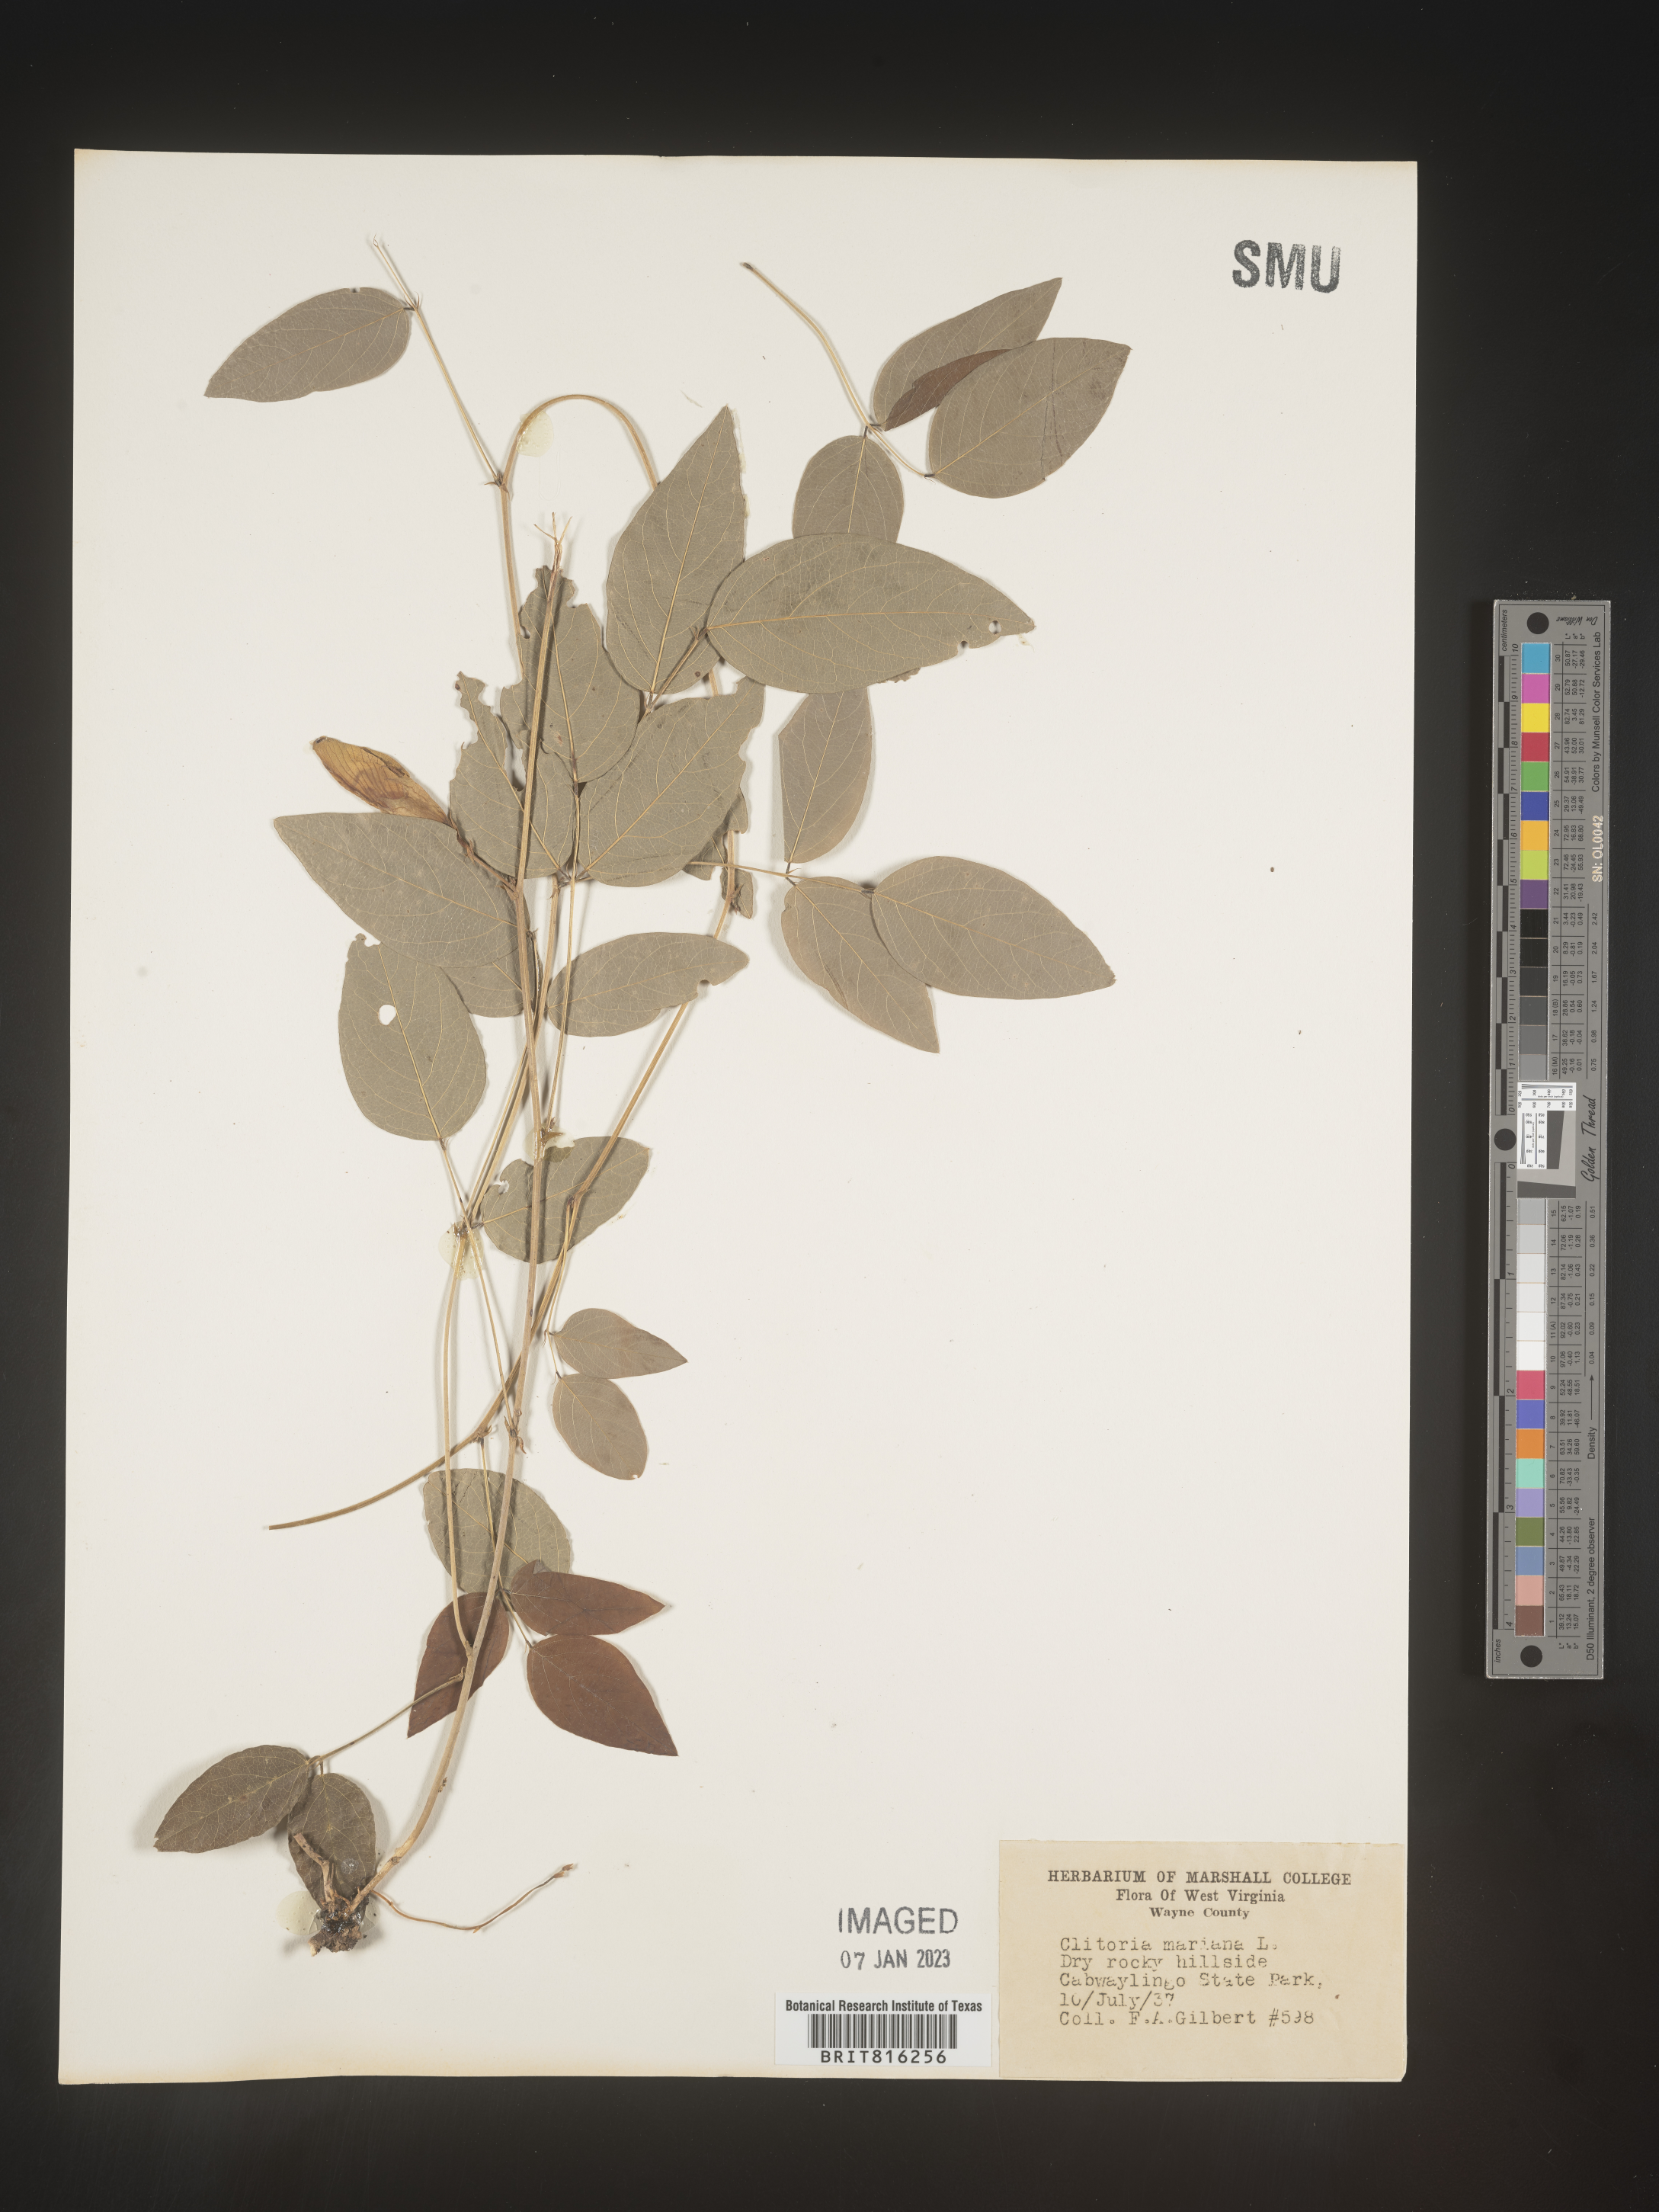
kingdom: Plantae
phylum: Tracheophyta
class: Magnoliopsida
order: Fabales
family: Fabaceae
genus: Clitoria
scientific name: Clitoria mariana
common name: Butterfly-pea
